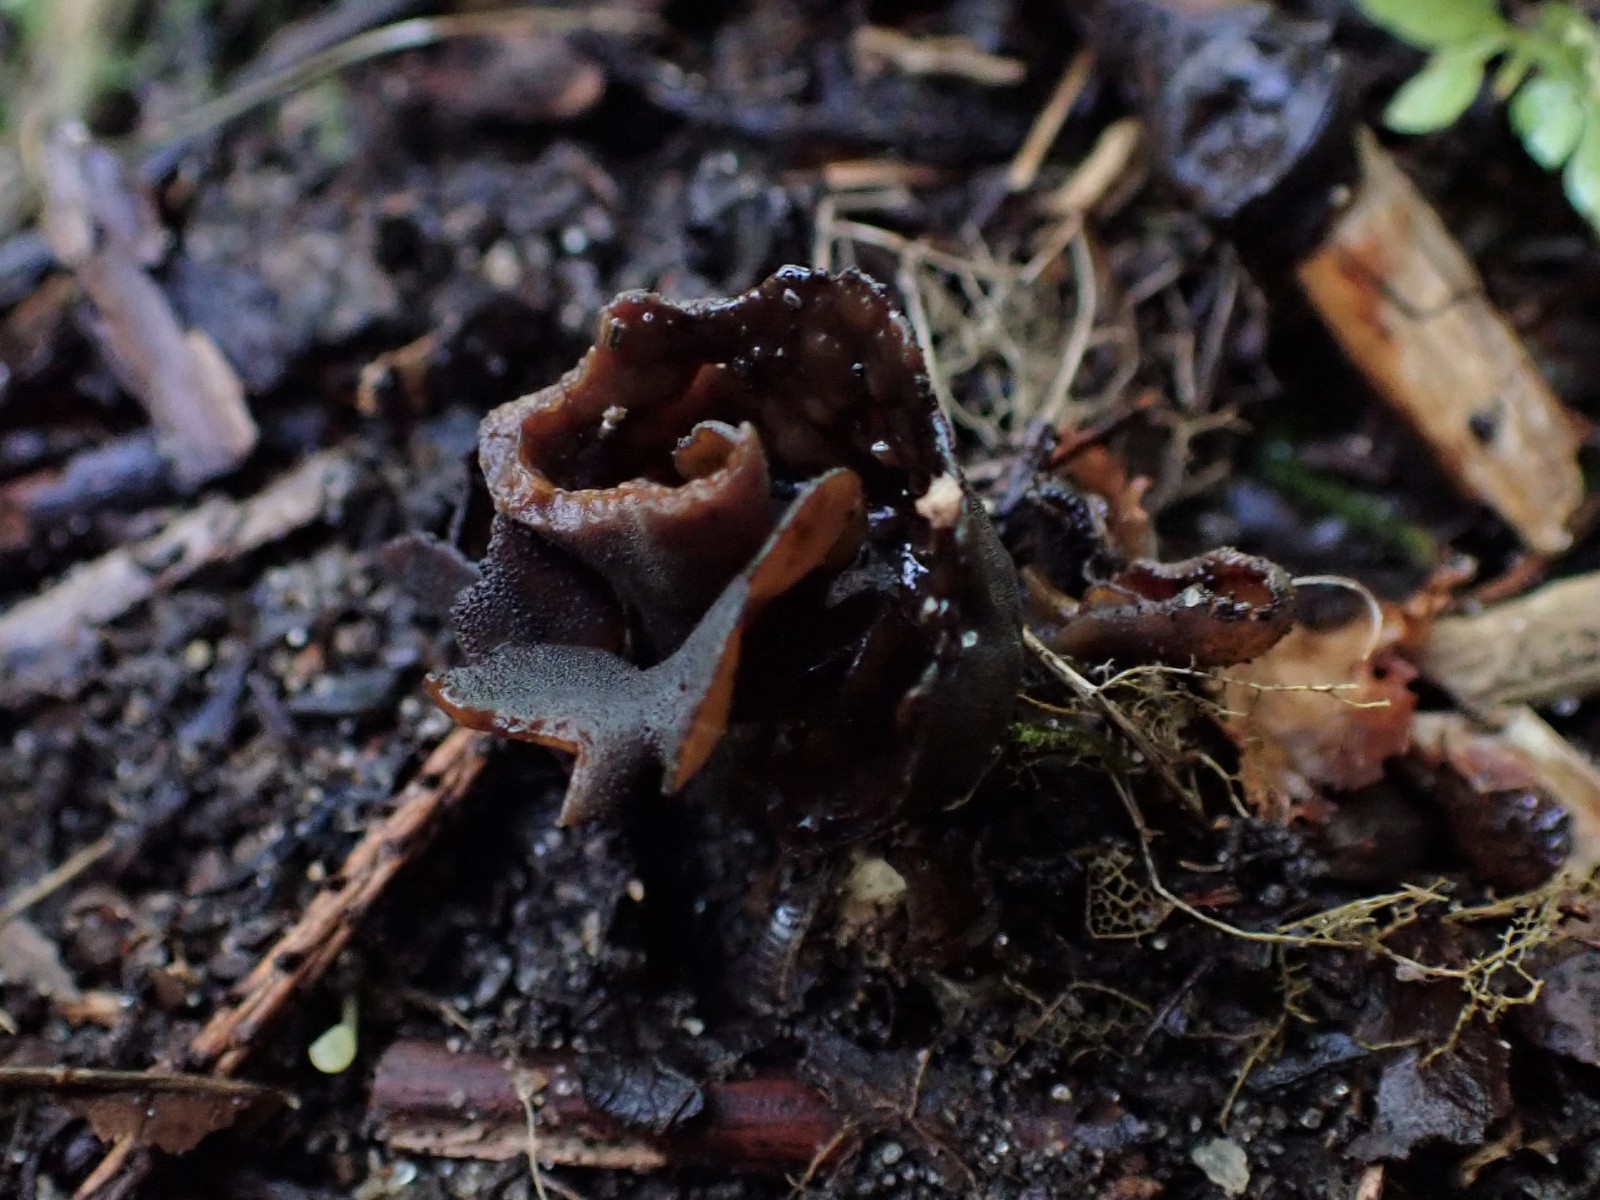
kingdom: Fungi
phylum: Ascomycota
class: Pezizomycetes
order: Pezizales
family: Otideaceae
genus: Otidea
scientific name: Otidea bufonia
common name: brun ørebæger
